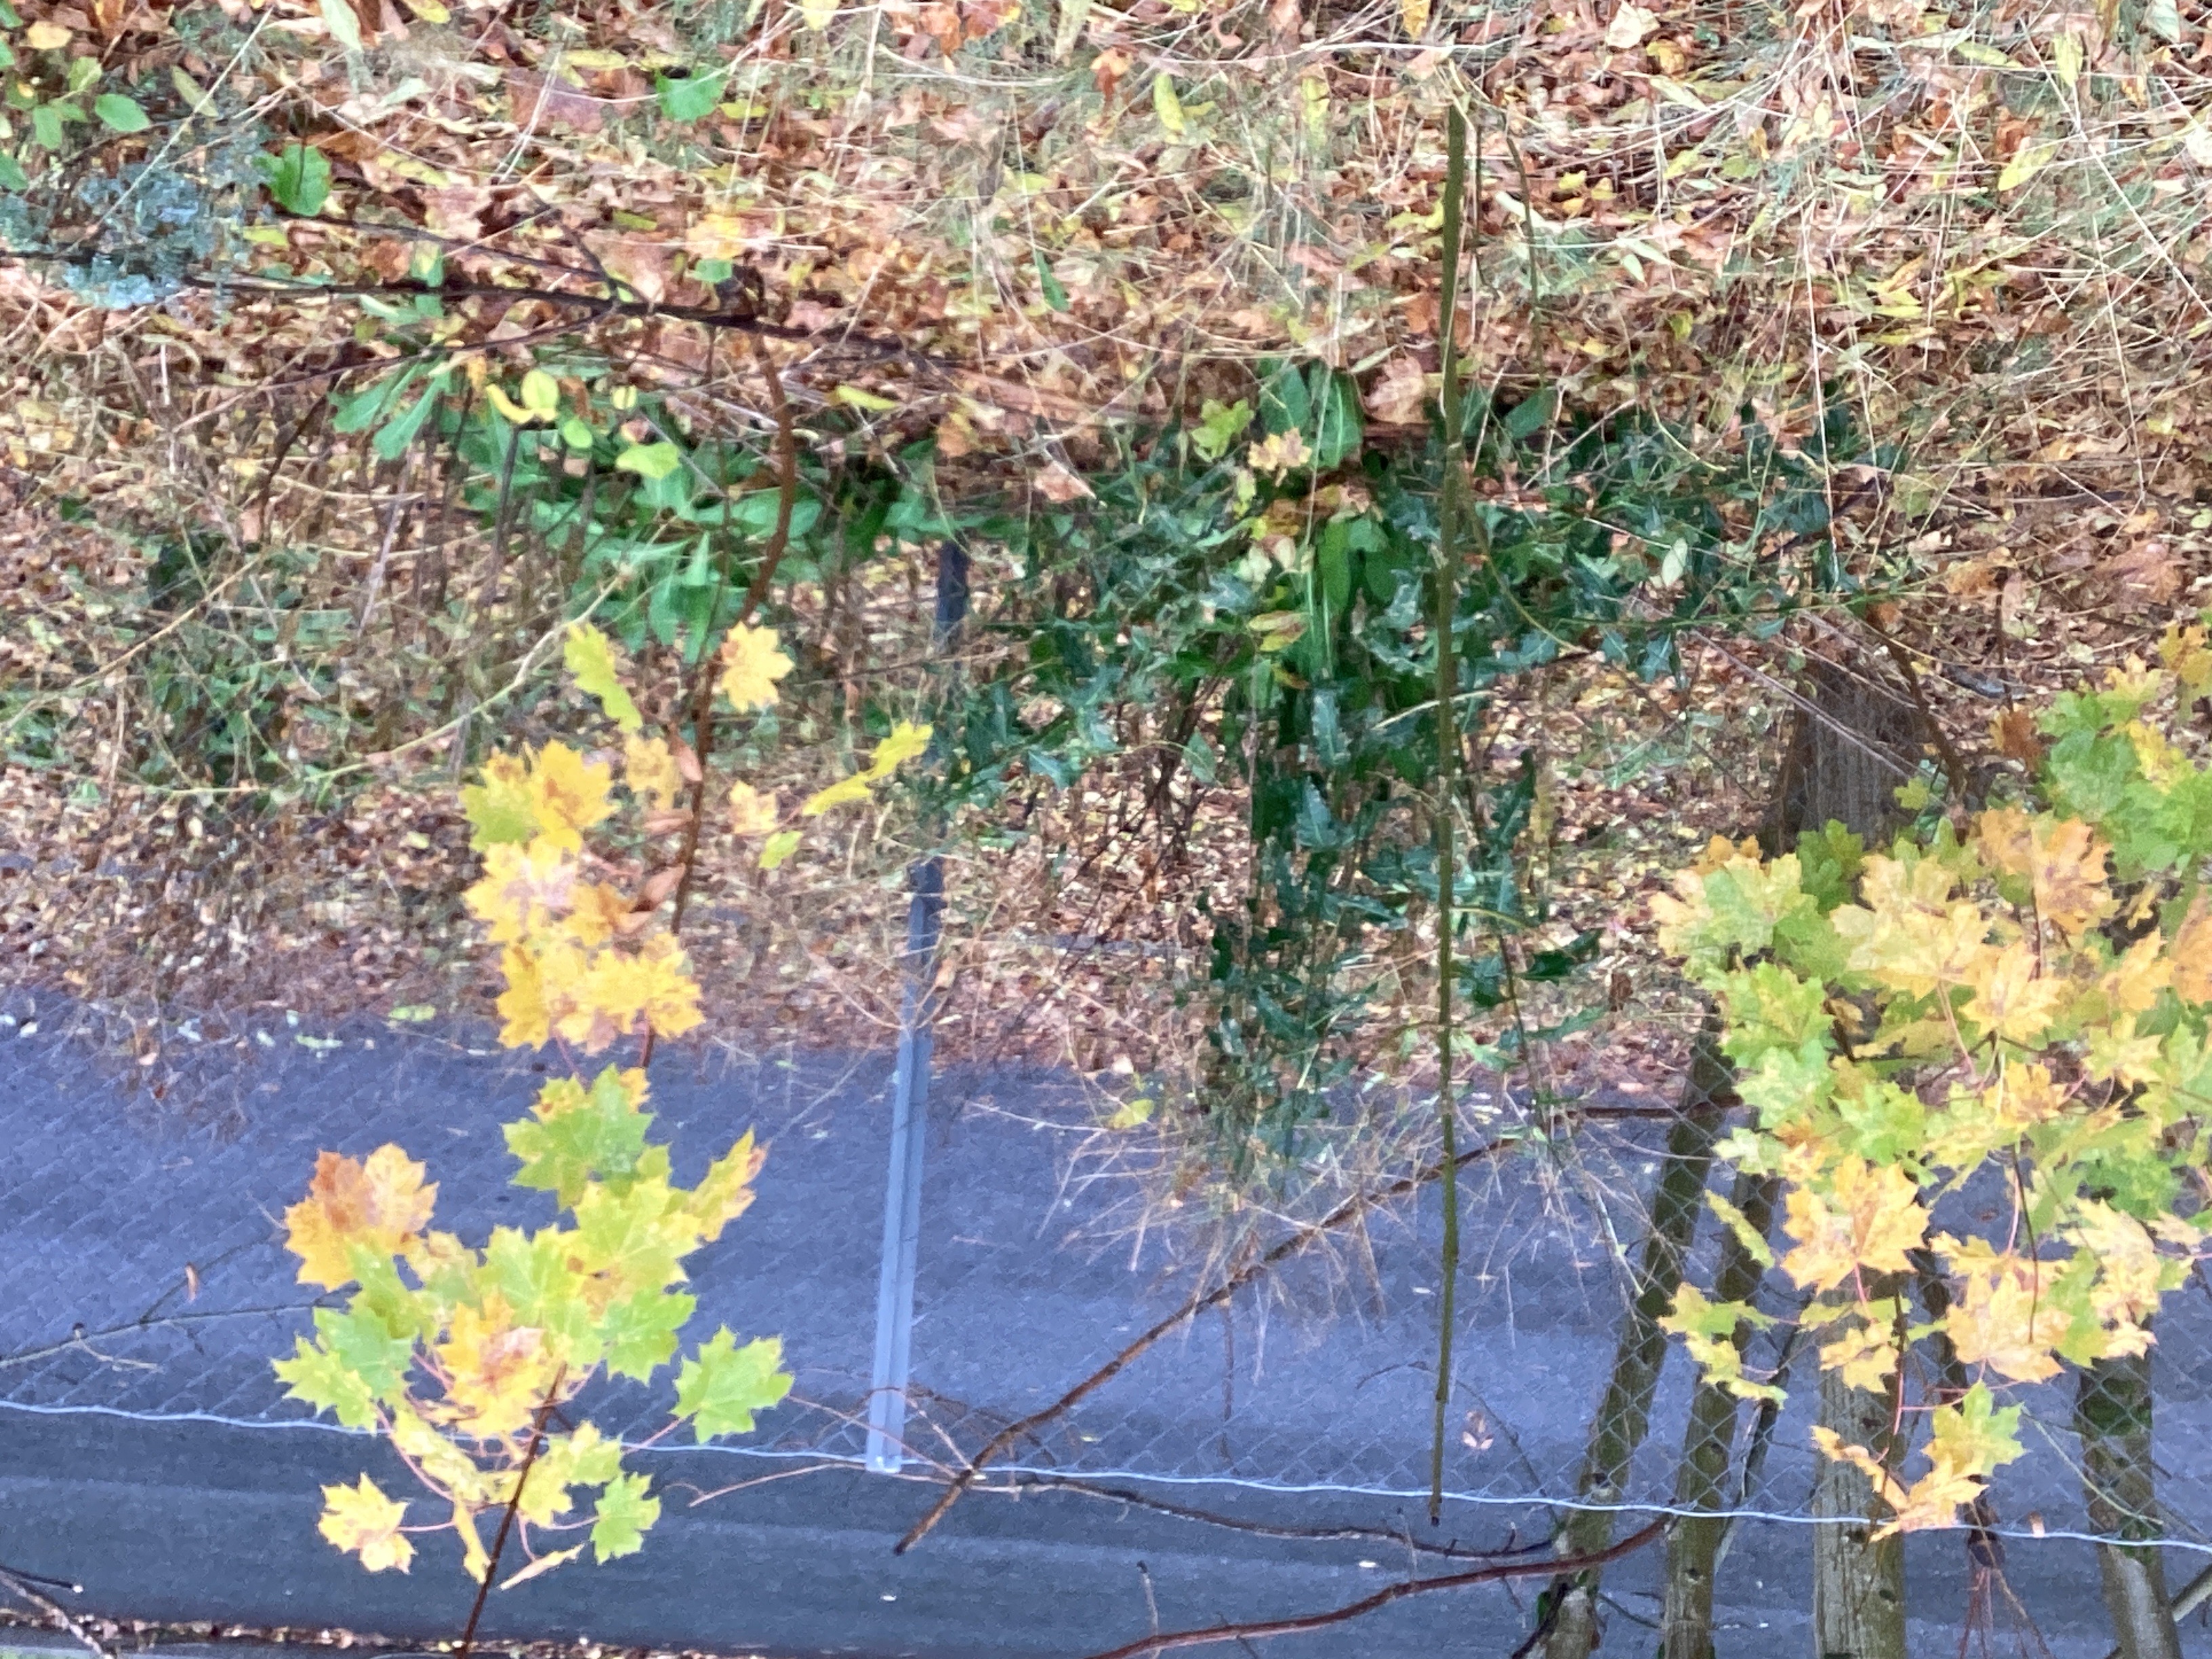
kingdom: Plantae
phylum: Tracheophyta
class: Magnoliopsida
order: Brassicales
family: Brassicaceae
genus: Bunias
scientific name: Bunias orientalis
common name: russekål
